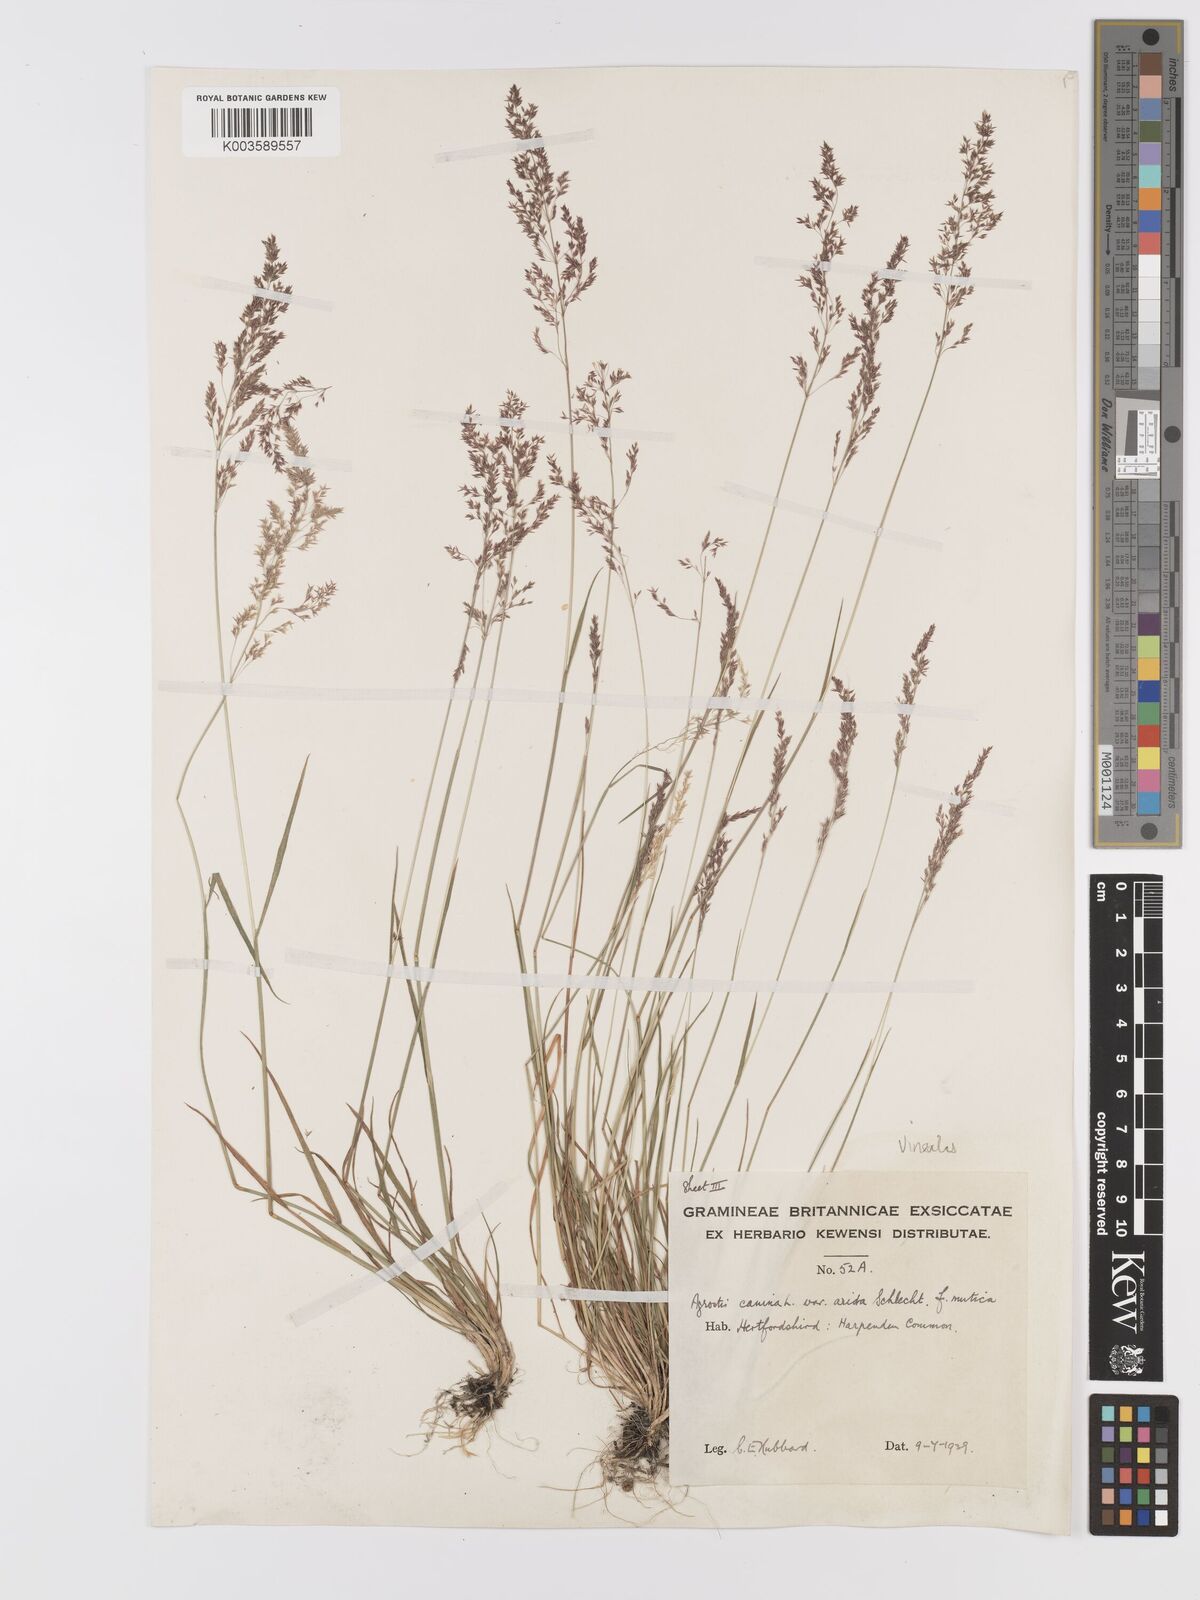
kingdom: Plantae
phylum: Tracheophyta
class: Liliopsida
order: Poales
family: Poaceae
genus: Agrostis
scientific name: Agrostis
